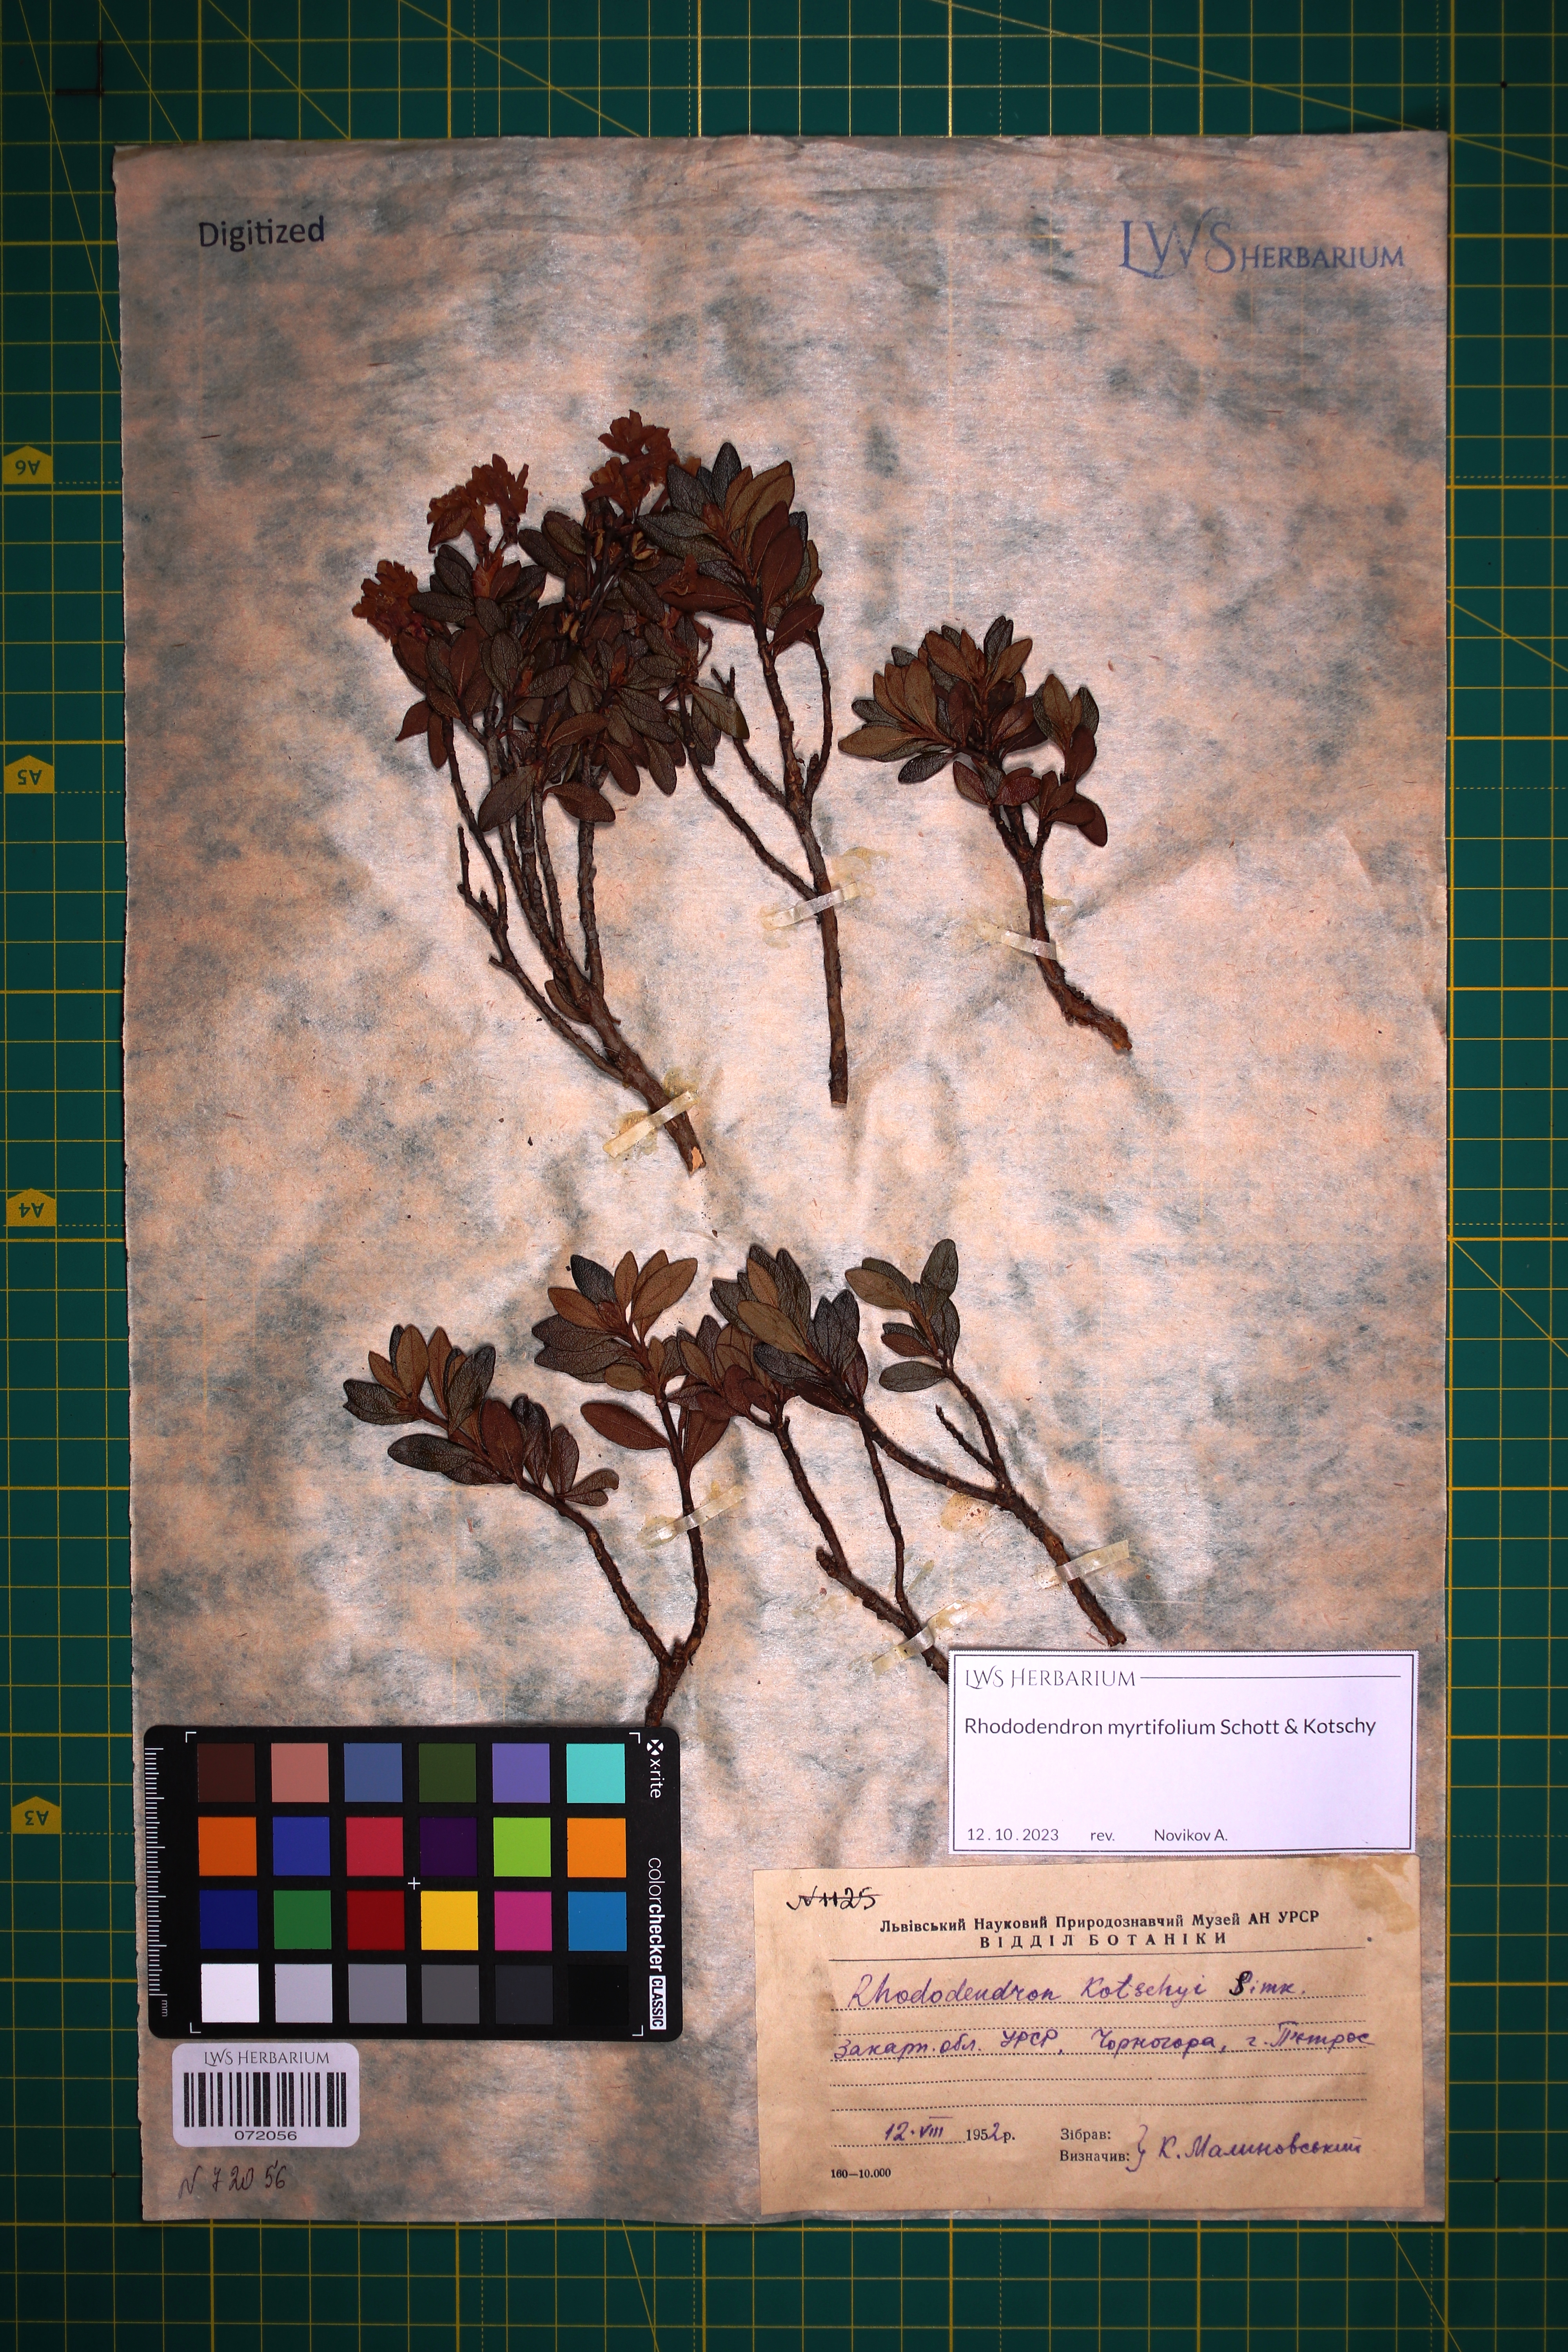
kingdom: Plantae
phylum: Tracheophyta
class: Magnoliopsida
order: Ericales
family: Ericaceae
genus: Rhododendron
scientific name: Rhododendron kotschyi
